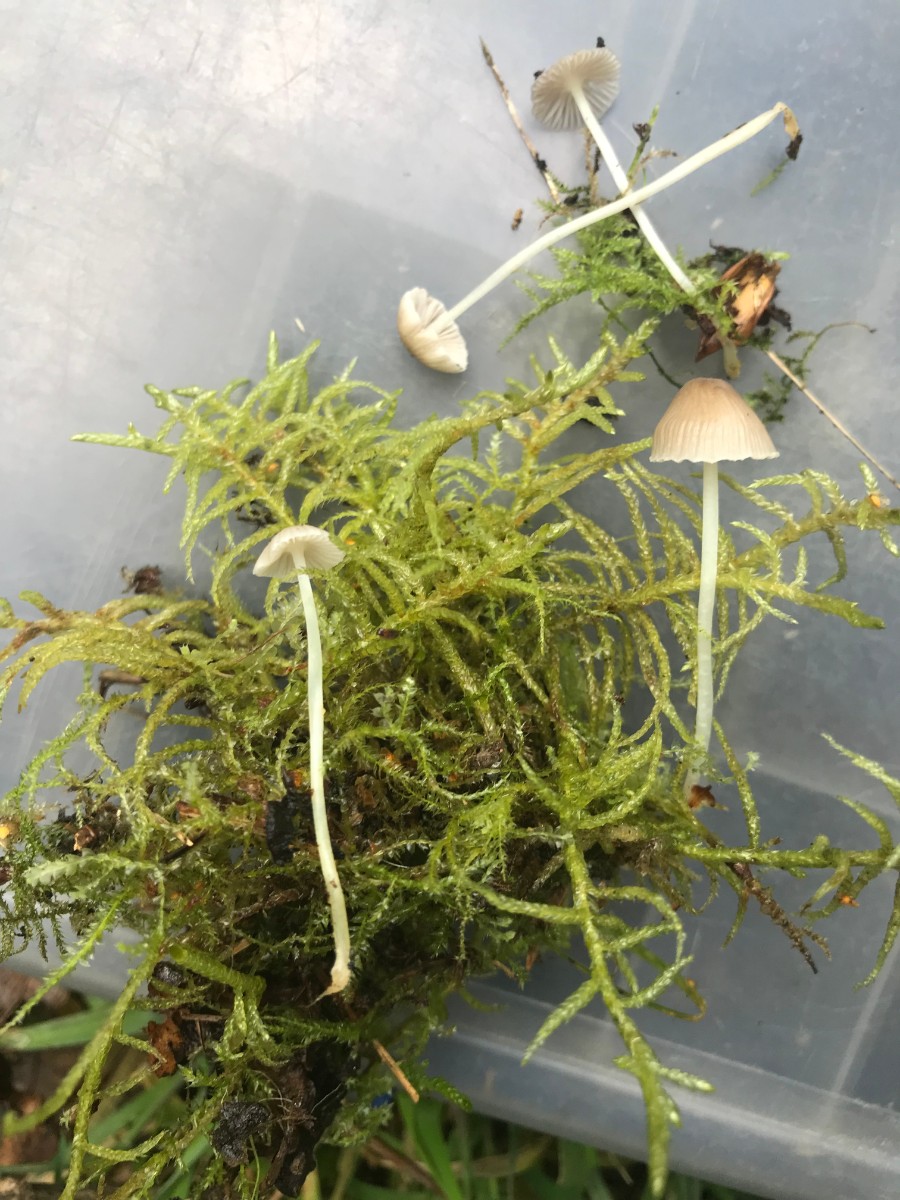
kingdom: Fungi
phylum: Basidiomycota
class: Agaricomycetes
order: Agaricales
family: Mycenaceae
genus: Mycena
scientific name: Mycena epipterygia
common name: Yellowleg bonnet
